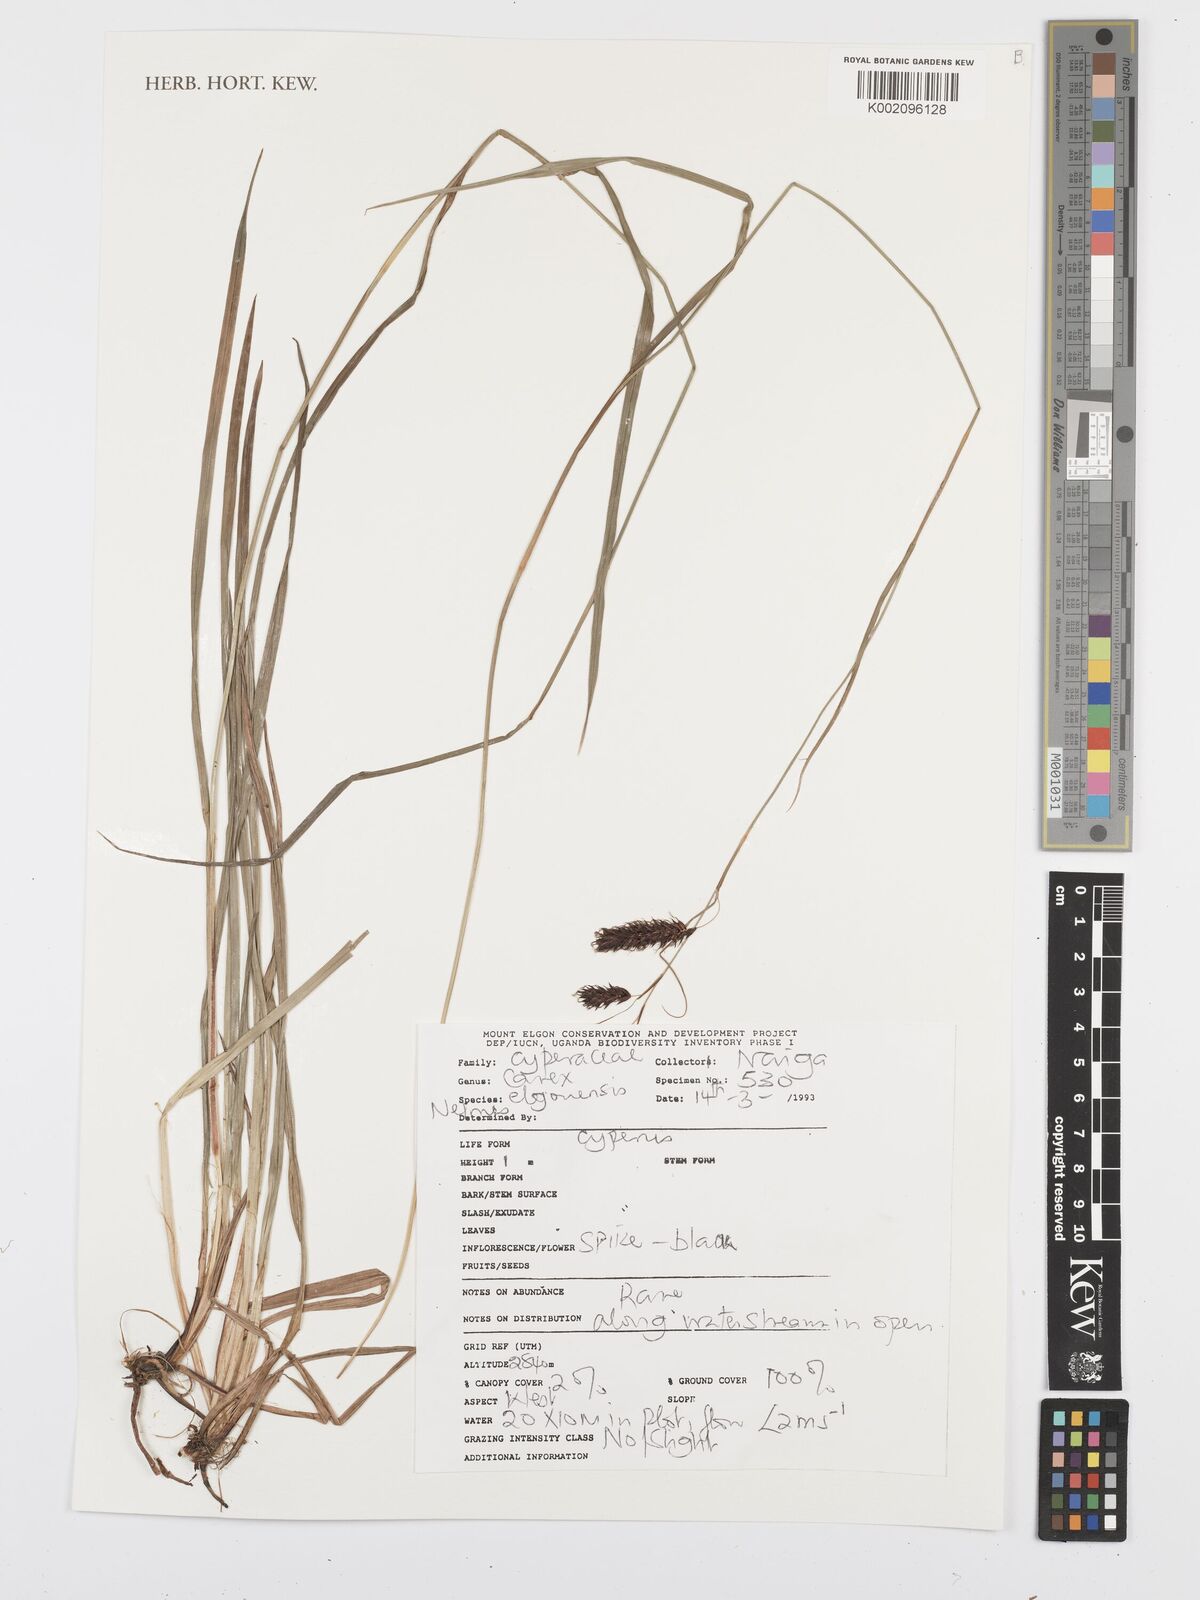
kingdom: Plantae
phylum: Tracheophyta
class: Liliopsida
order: Poales
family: Cyperaceae
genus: Carex
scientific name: Carex elgonensis
